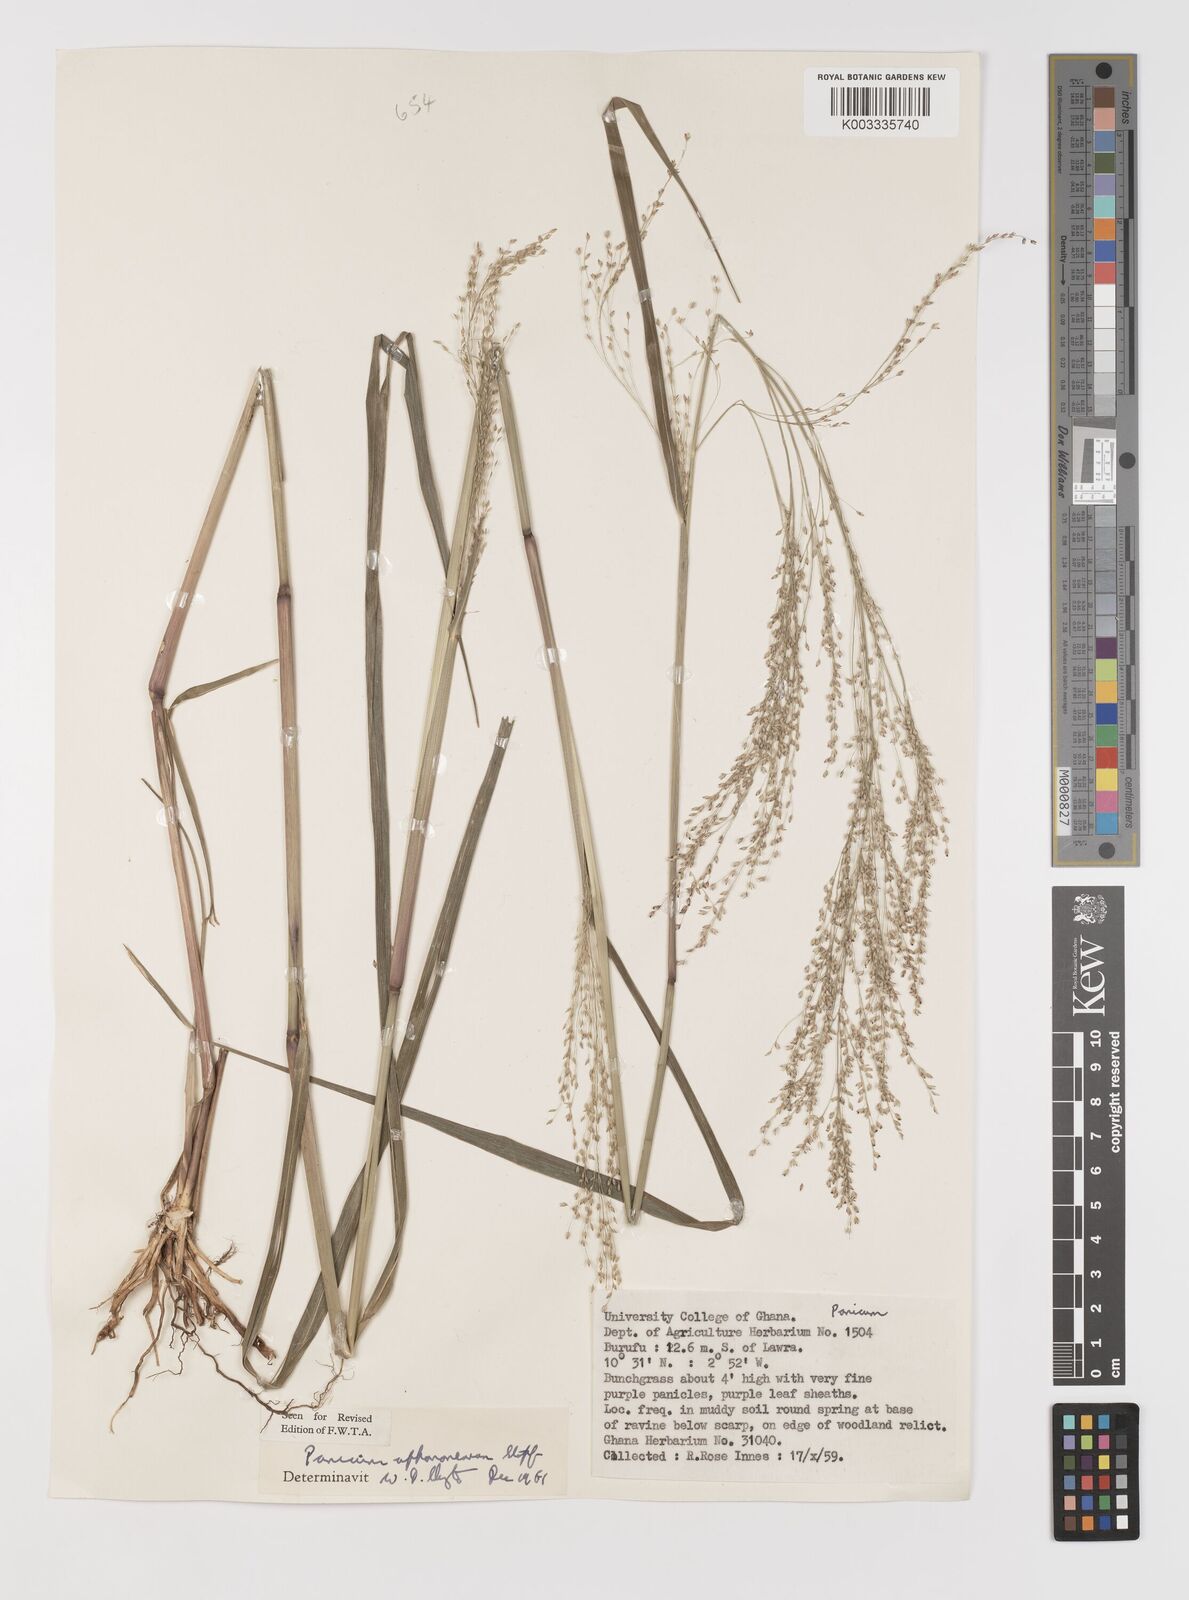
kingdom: Plantae
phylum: Tracheophyta
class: Liliopsida
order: Poales
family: Poaceae
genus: Panicum
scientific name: Panicum fluviicola
